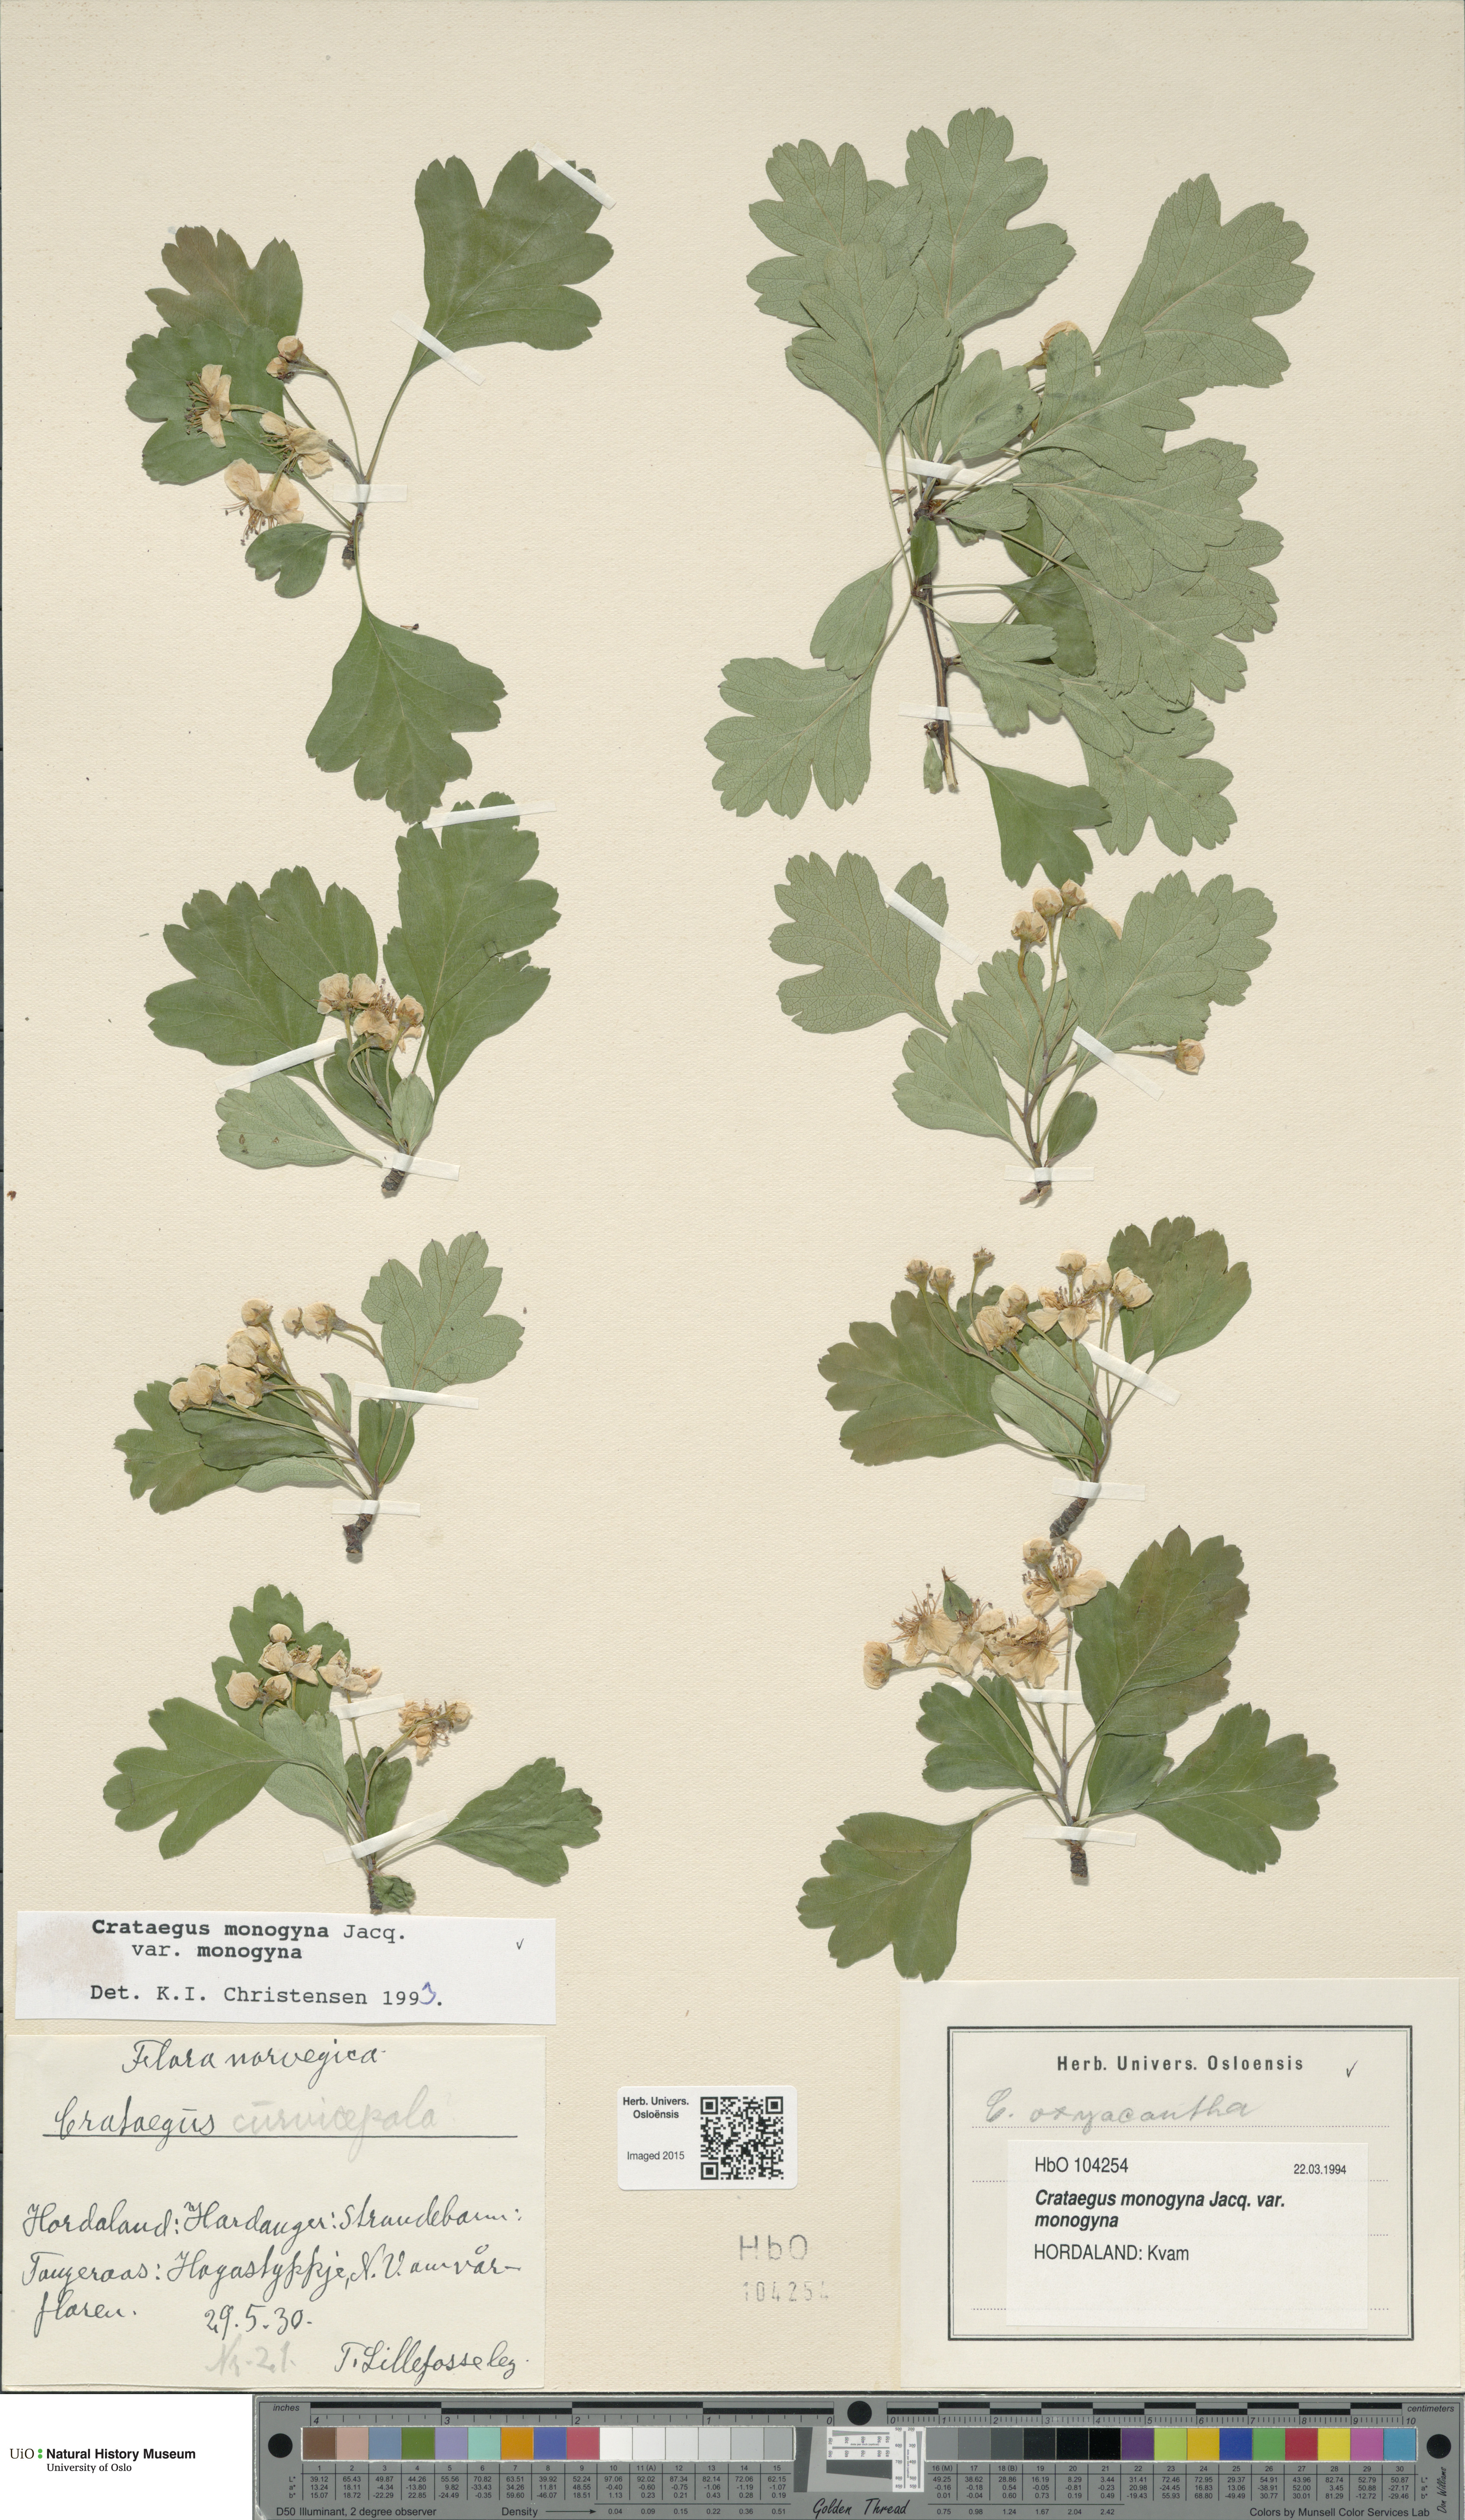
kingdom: Plantae
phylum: Tracheophyta
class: Magnoliopsida
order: Rosales
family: Rosaceae
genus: Crataegus
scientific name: Crataegus monogyna
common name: Hawthorn
